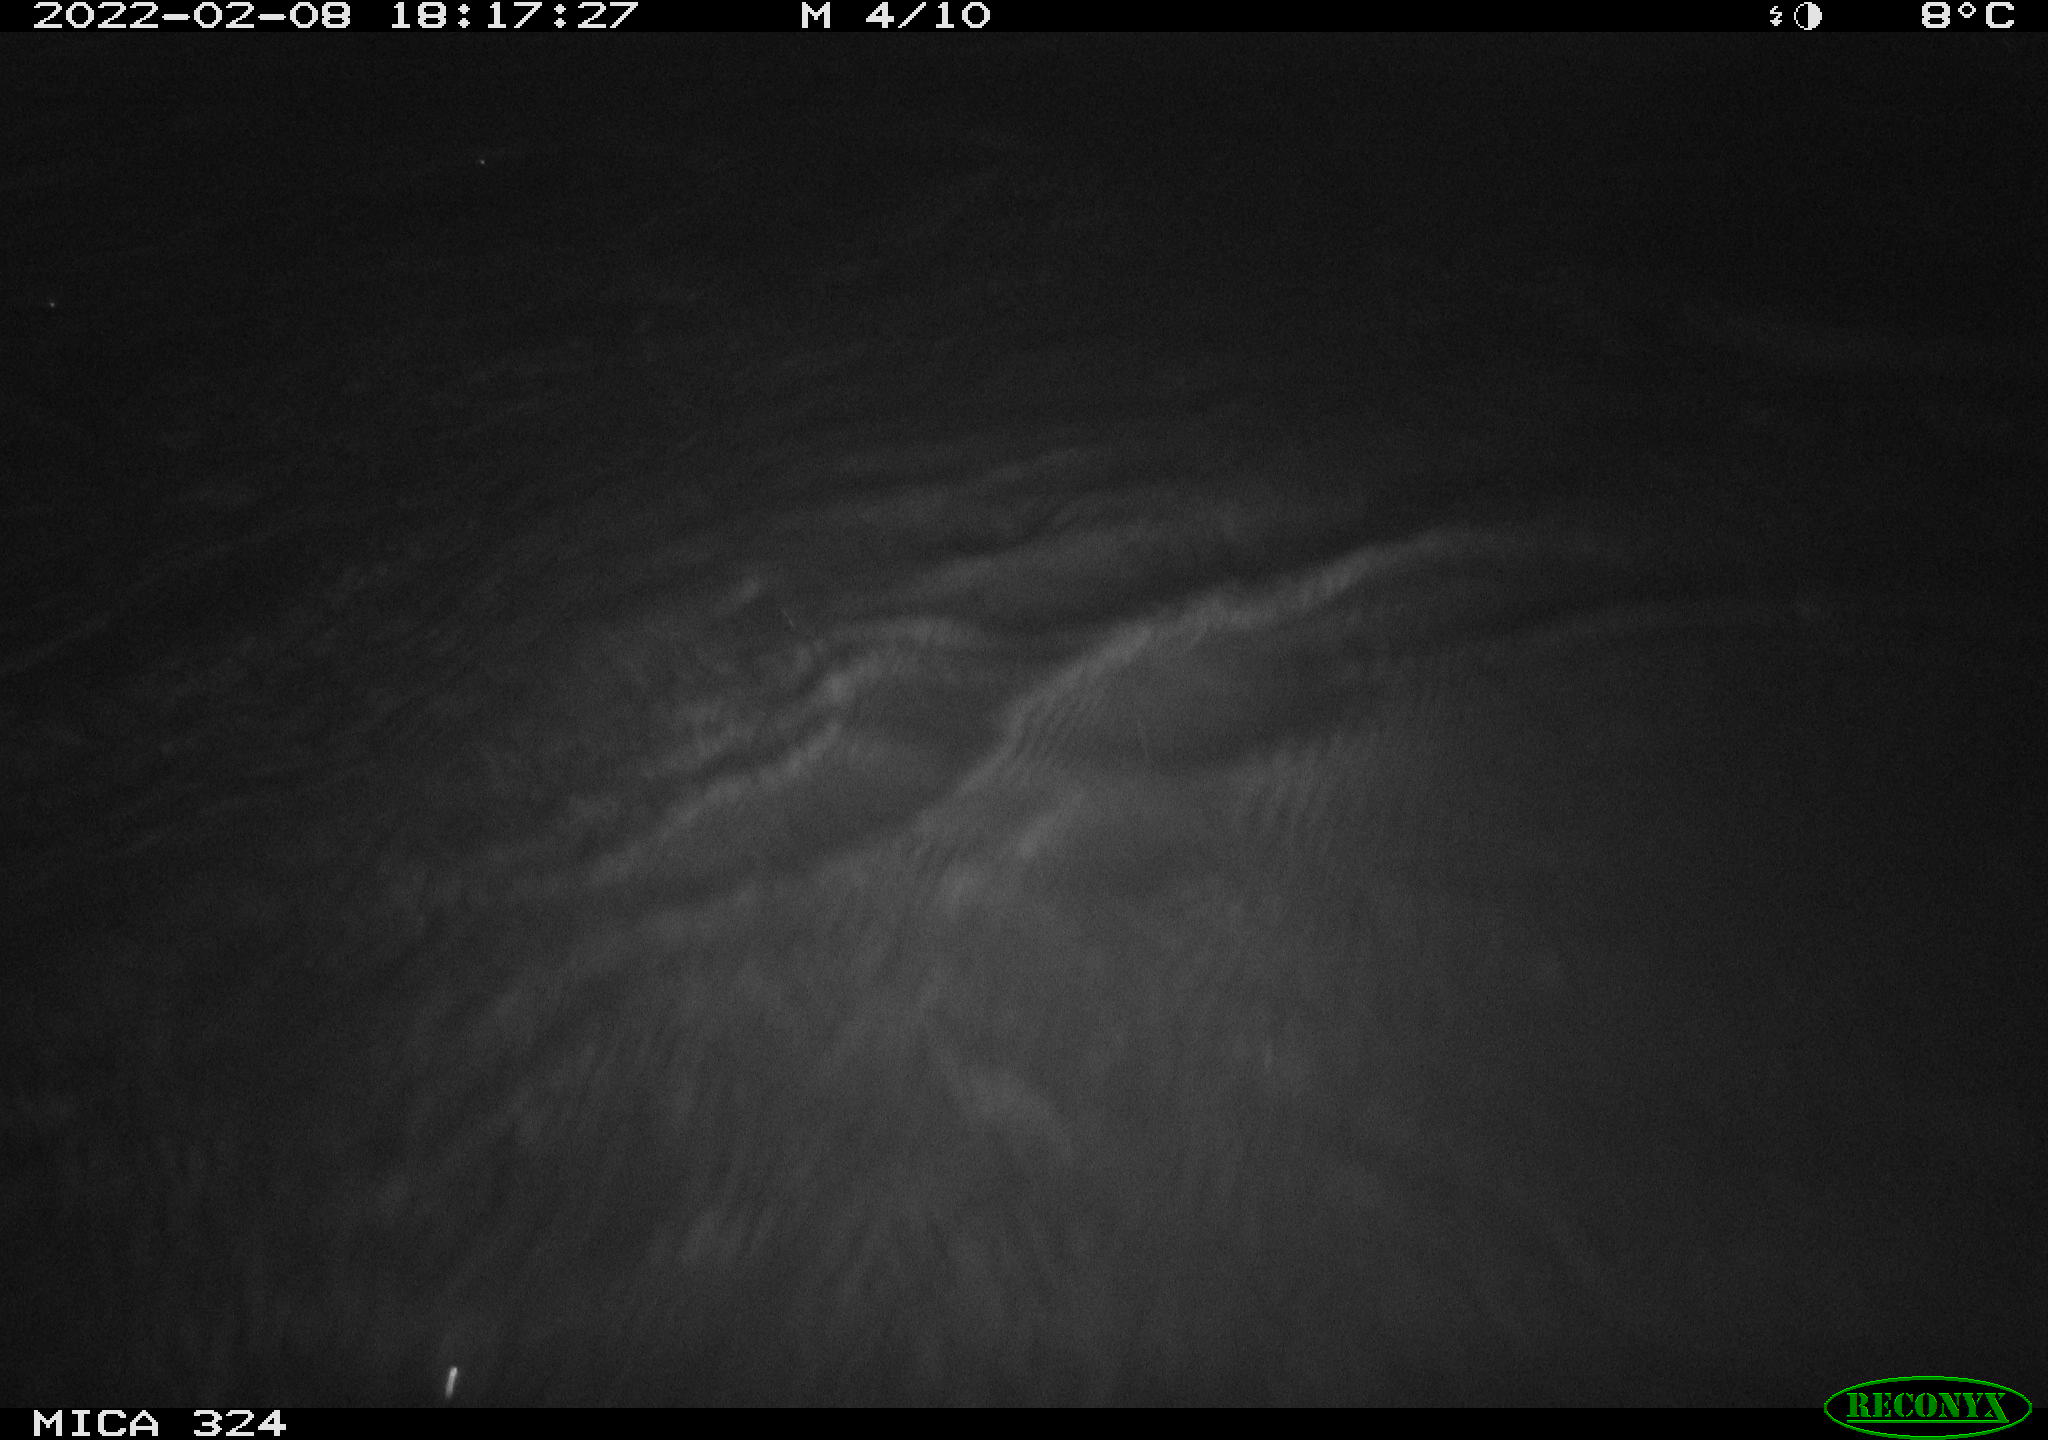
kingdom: Animalia
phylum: Chordata
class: Mammalia
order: Rodentia
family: Cricetidae
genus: Ondatra
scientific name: Ondatra zibethicus
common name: Muskrat
